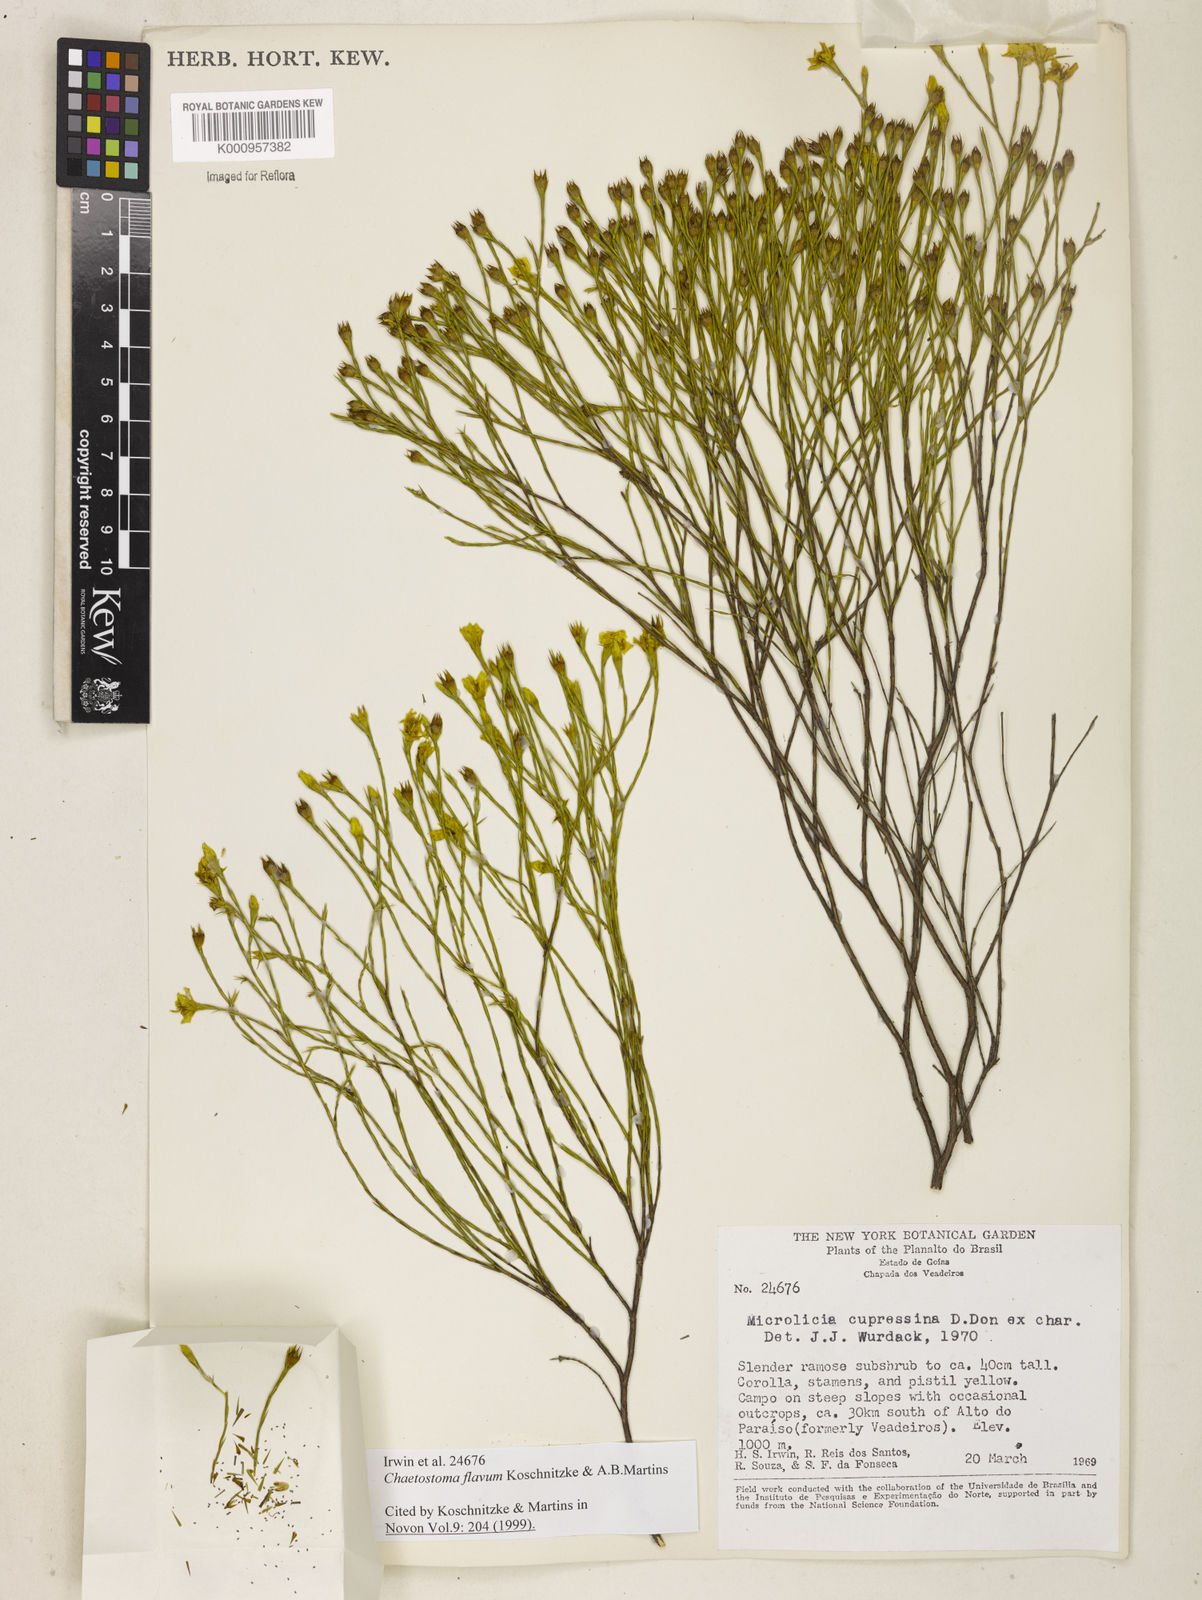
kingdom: Plantae
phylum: Tracheophyta
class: Magnoliopsida
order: Myrtales
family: Melastomataceae
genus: Microlicia
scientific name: Microlicia flavipetala
